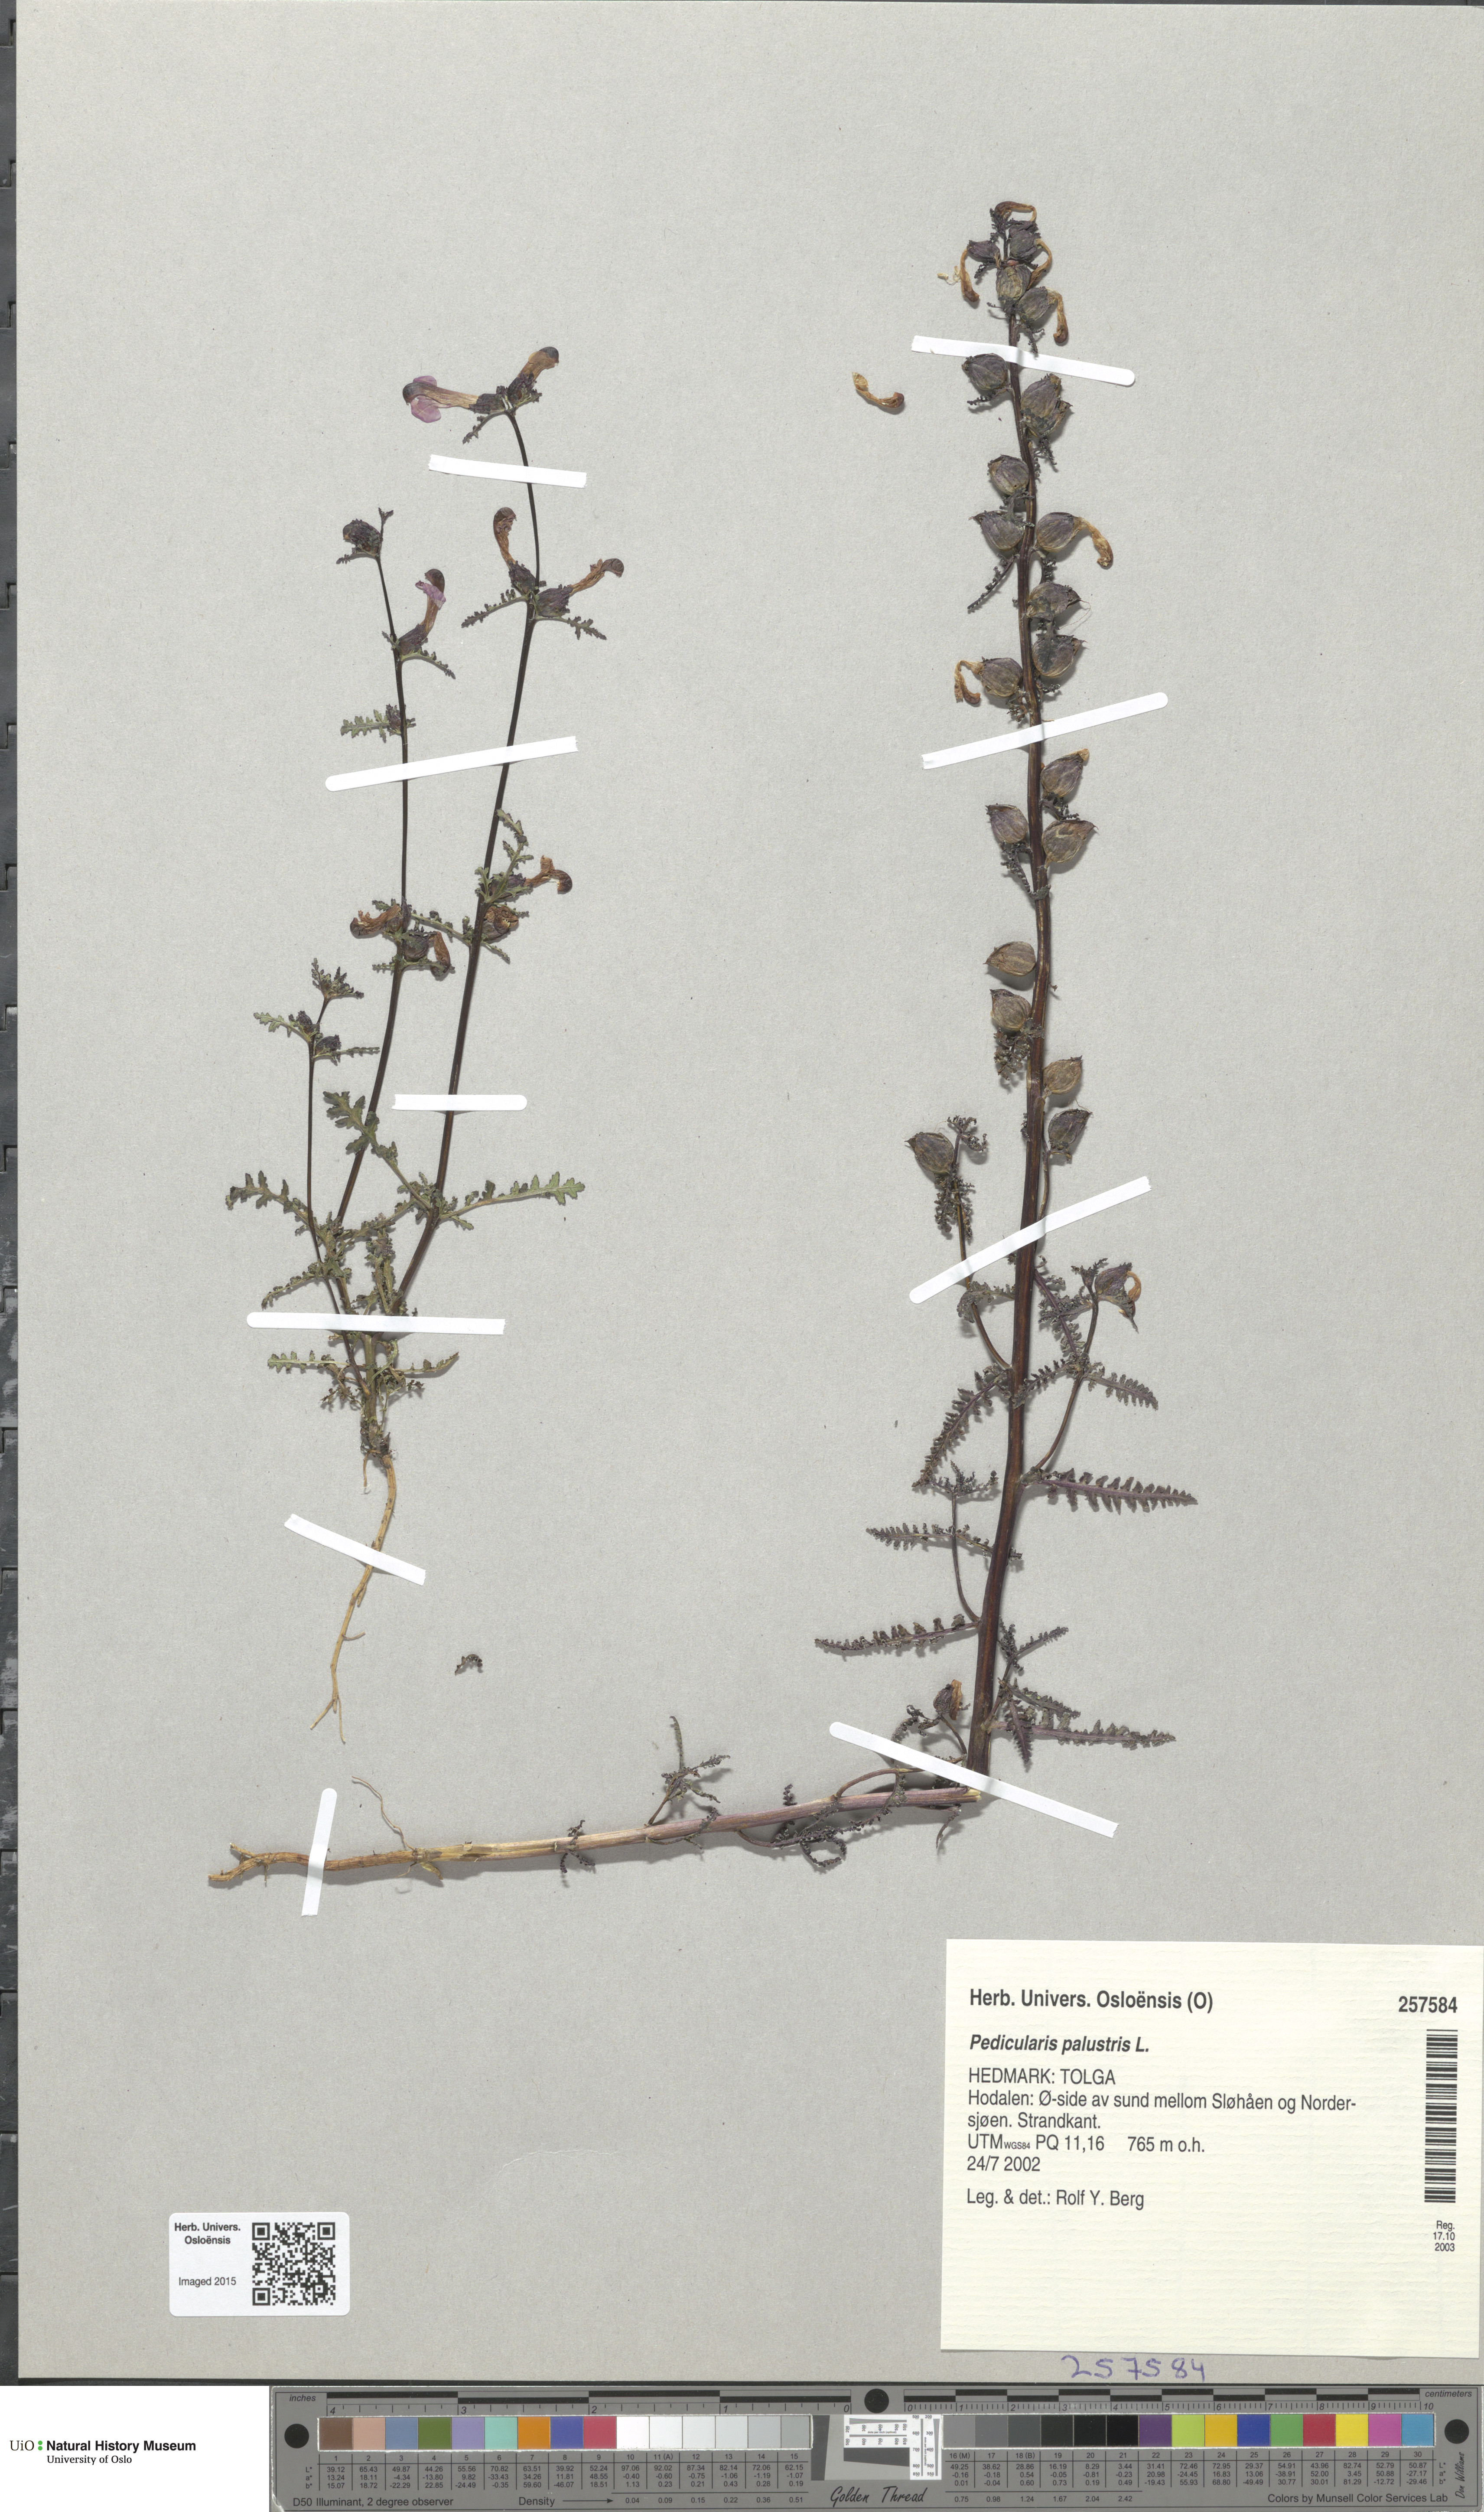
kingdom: Plantae
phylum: Tracheophyta
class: Magnoliopsida
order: Lamiales
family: Orobanchaceae
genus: Pedicularis
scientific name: Pedicularis palustris
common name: Marsh lousewort
